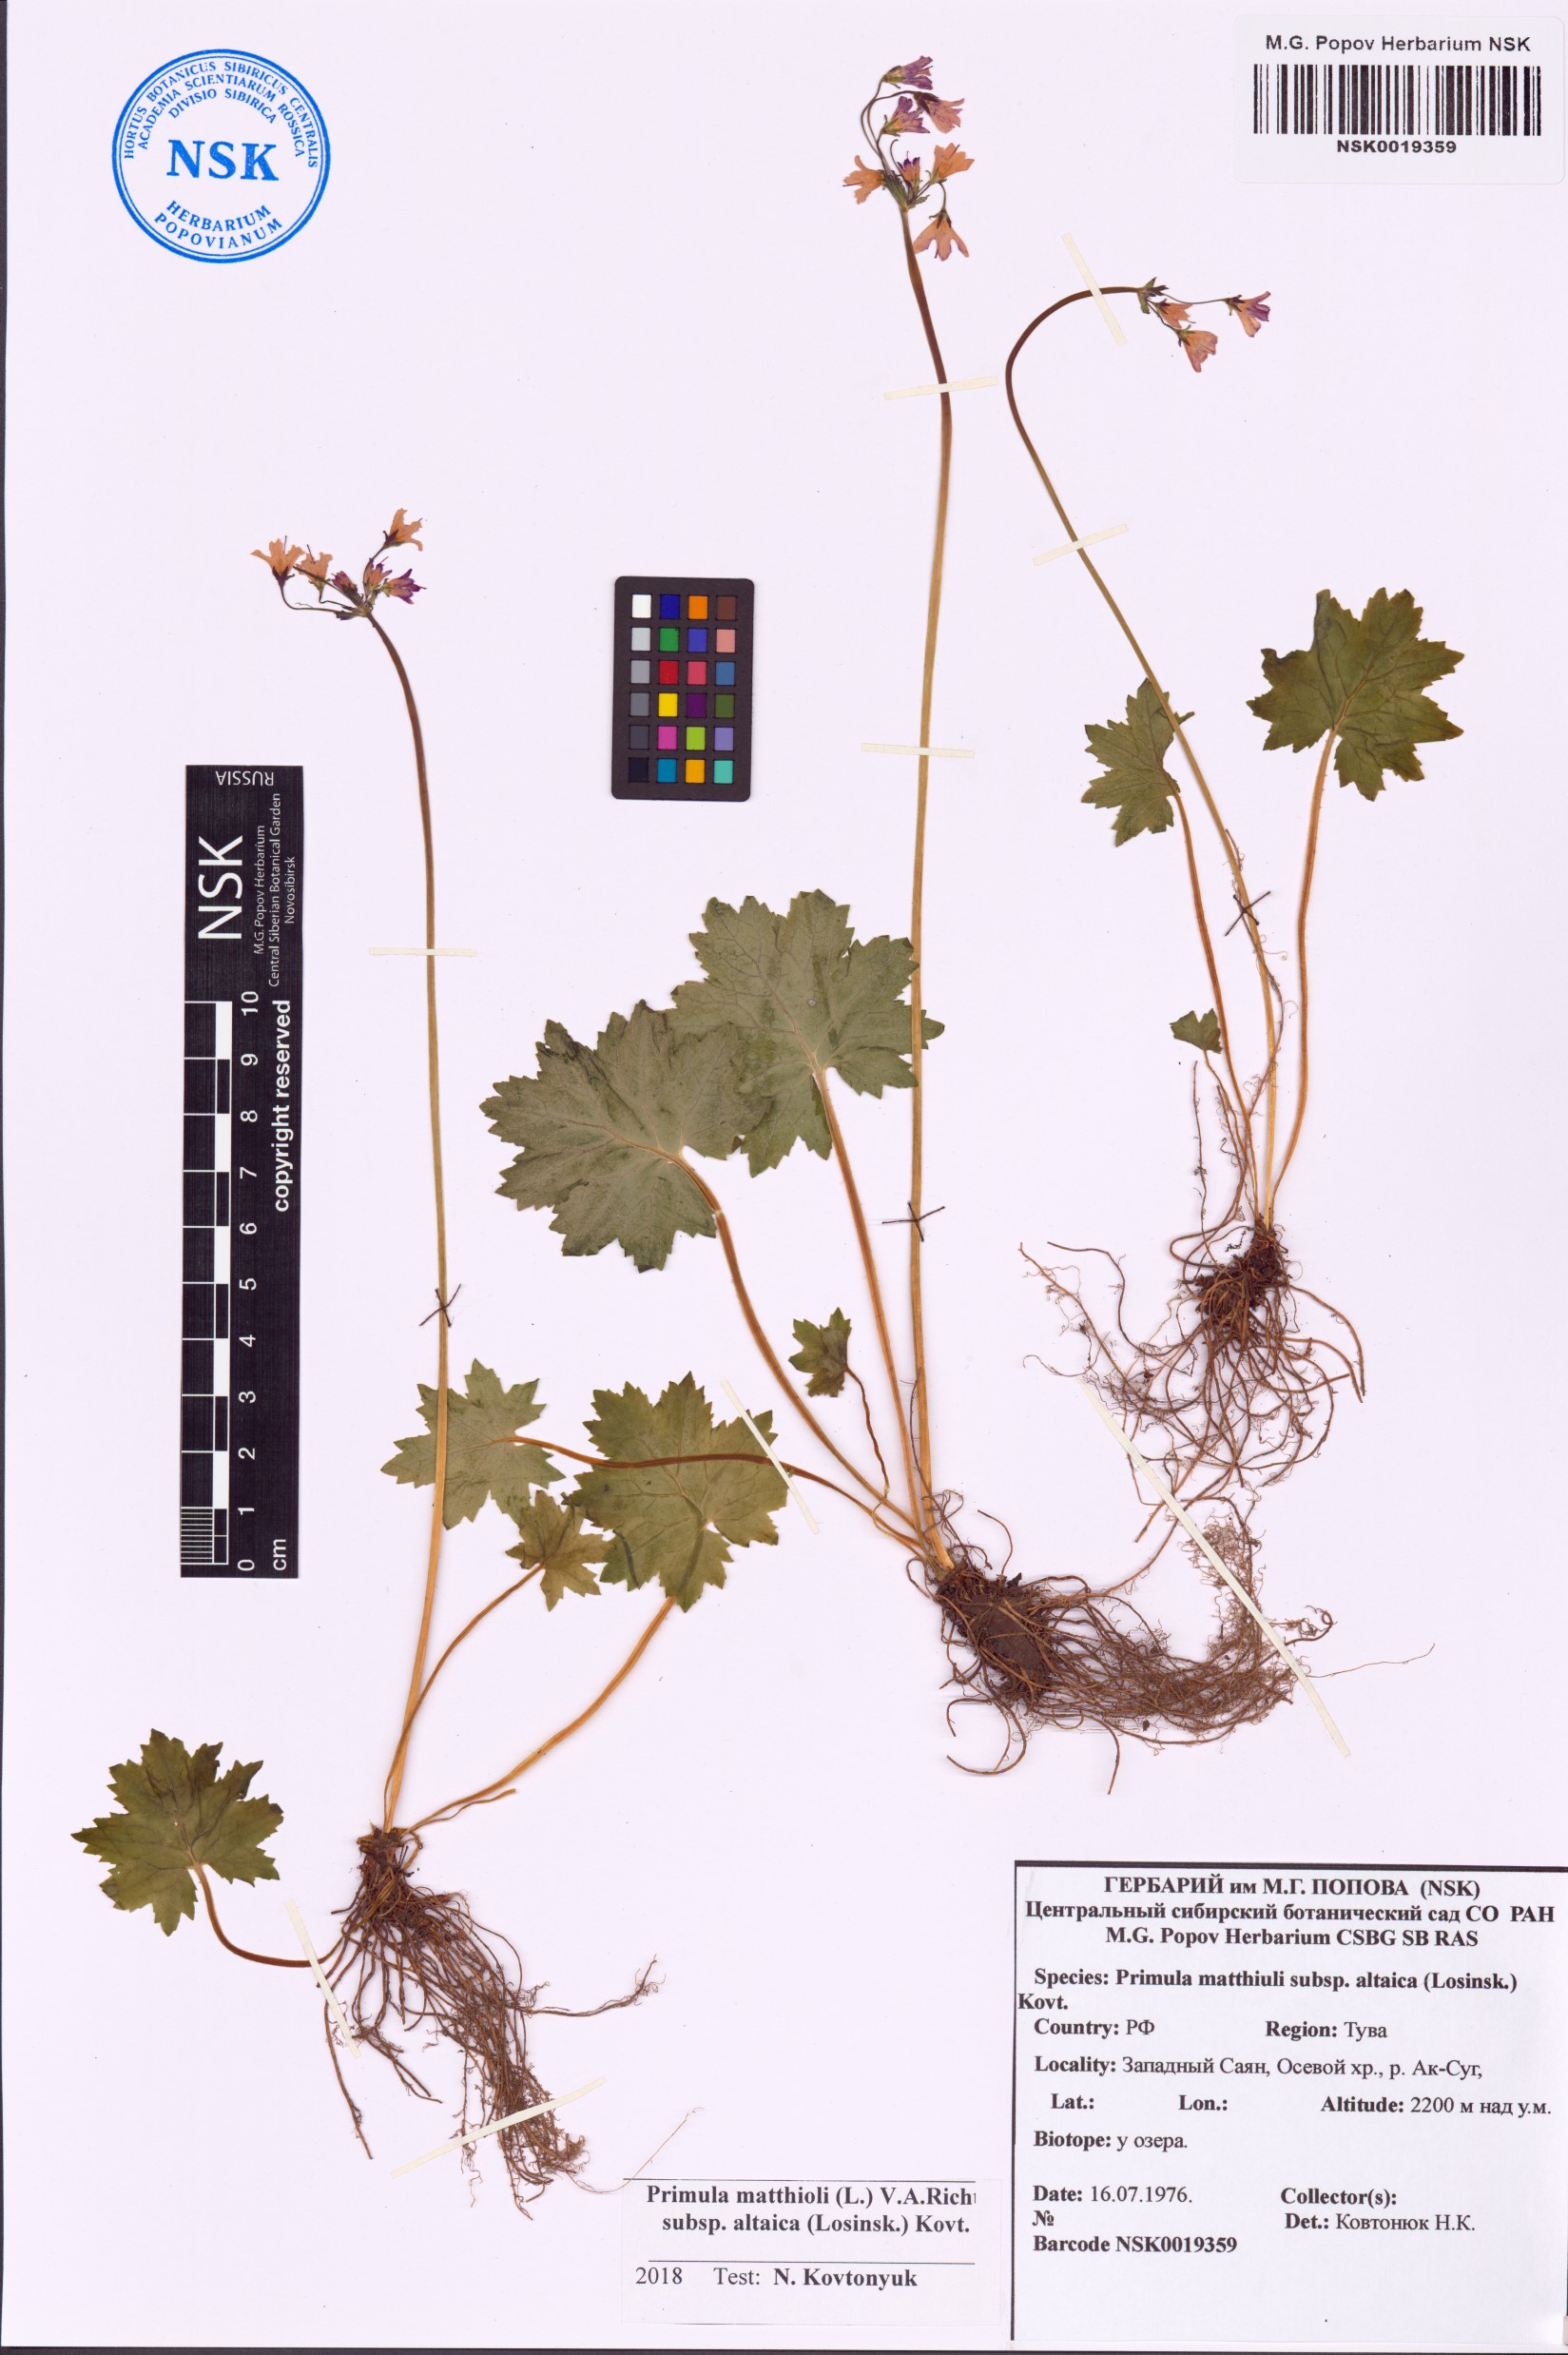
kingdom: Plantae
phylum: Tracheophyta
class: Magnoliopsida
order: Ericales
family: Primulaceae
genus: Primula
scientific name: Primula matthioli
